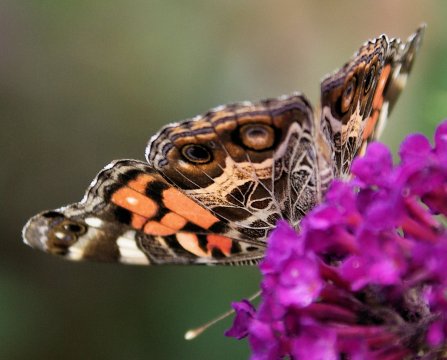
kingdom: Animalia
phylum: Arthropoda
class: Insecta
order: Lepidoptera
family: Nymphalidae
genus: Vanessa
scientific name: Vanessa virginiensis
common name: American Lady
